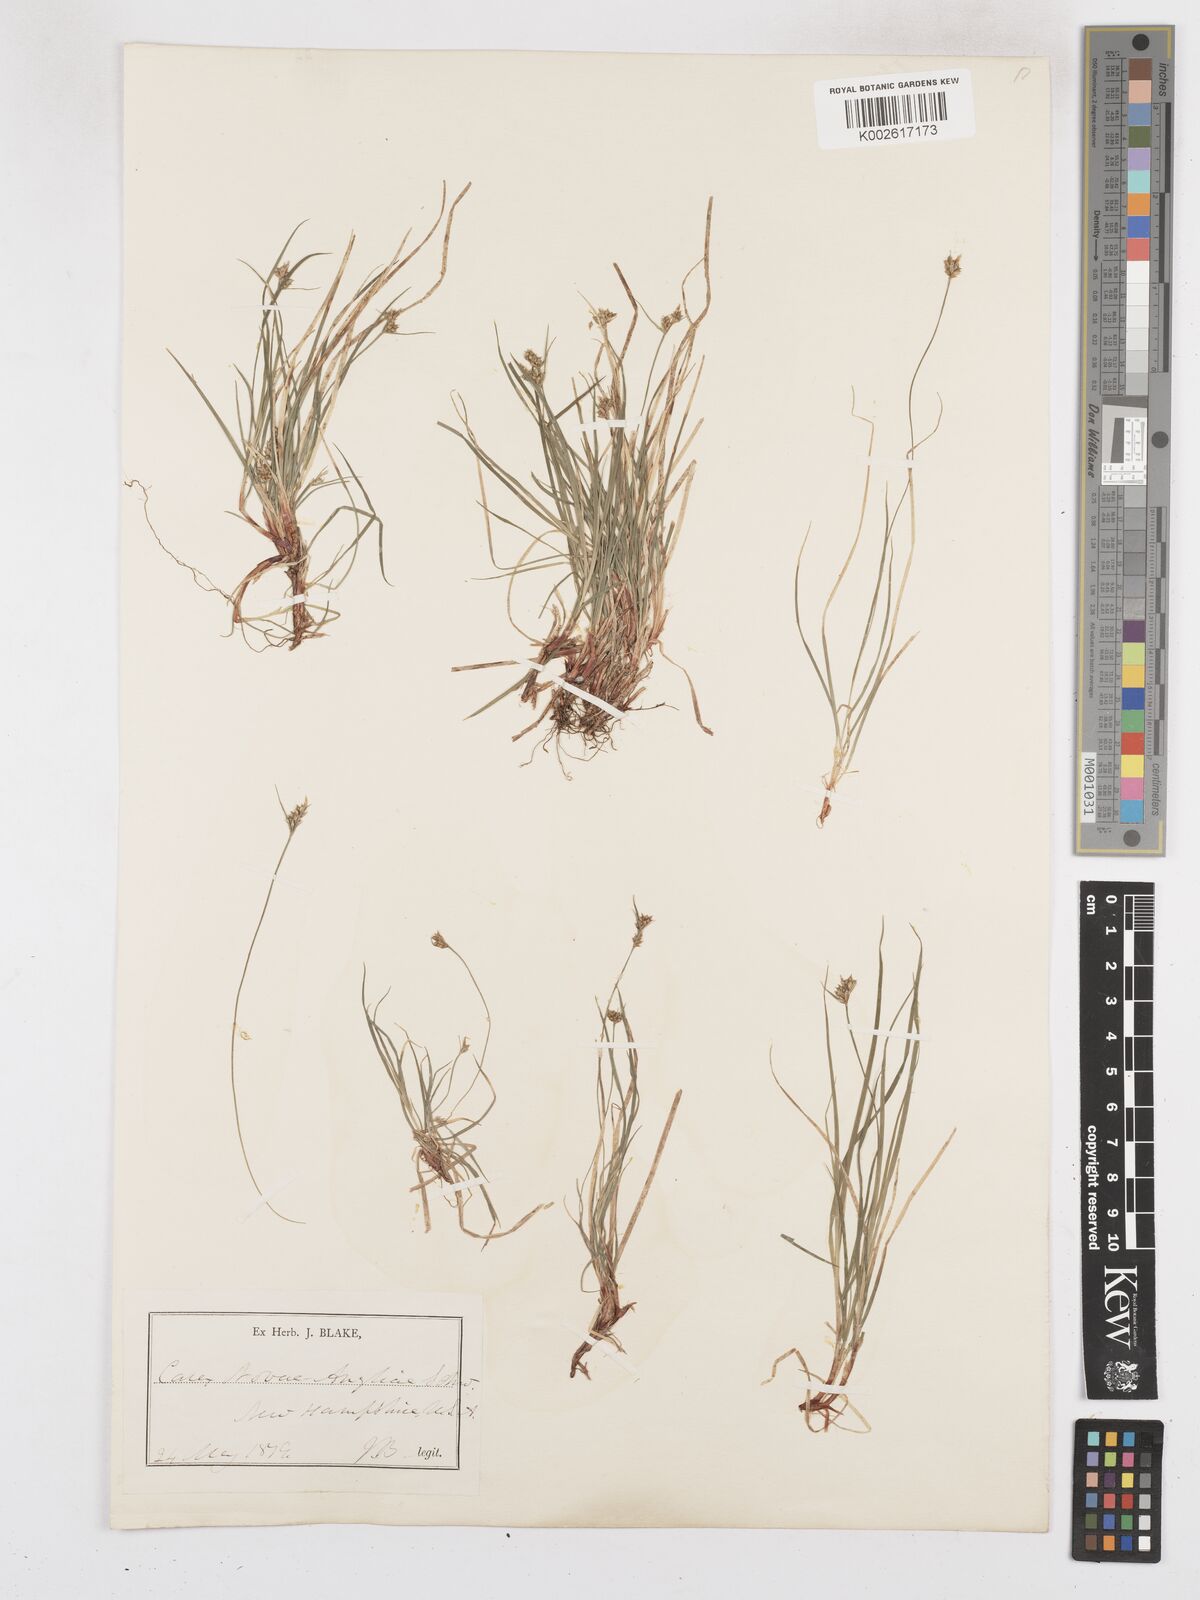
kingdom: Plantae
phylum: Tracheophyta
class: Liliopsida
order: Poales
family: Cyperaceae
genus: Carex
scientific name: Carex novae-angliae
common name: New england sedge
